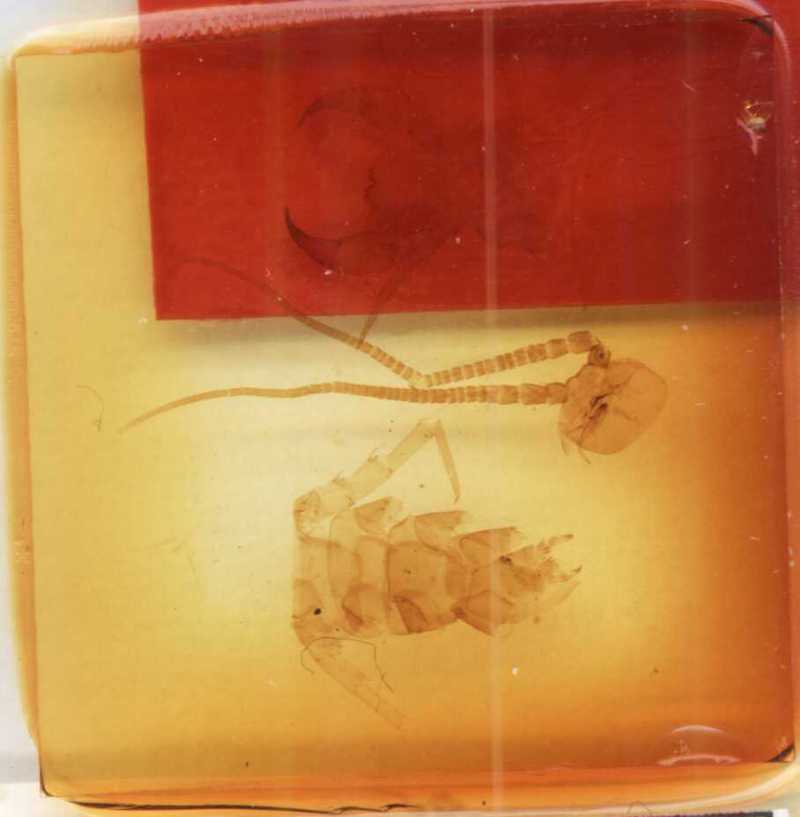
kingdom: Animalia
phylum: Arthropoda
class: Chilopoda
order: Lithobiomorpha
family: Lithobiidae
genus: Lithobius
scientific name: Lithobius viriatus
